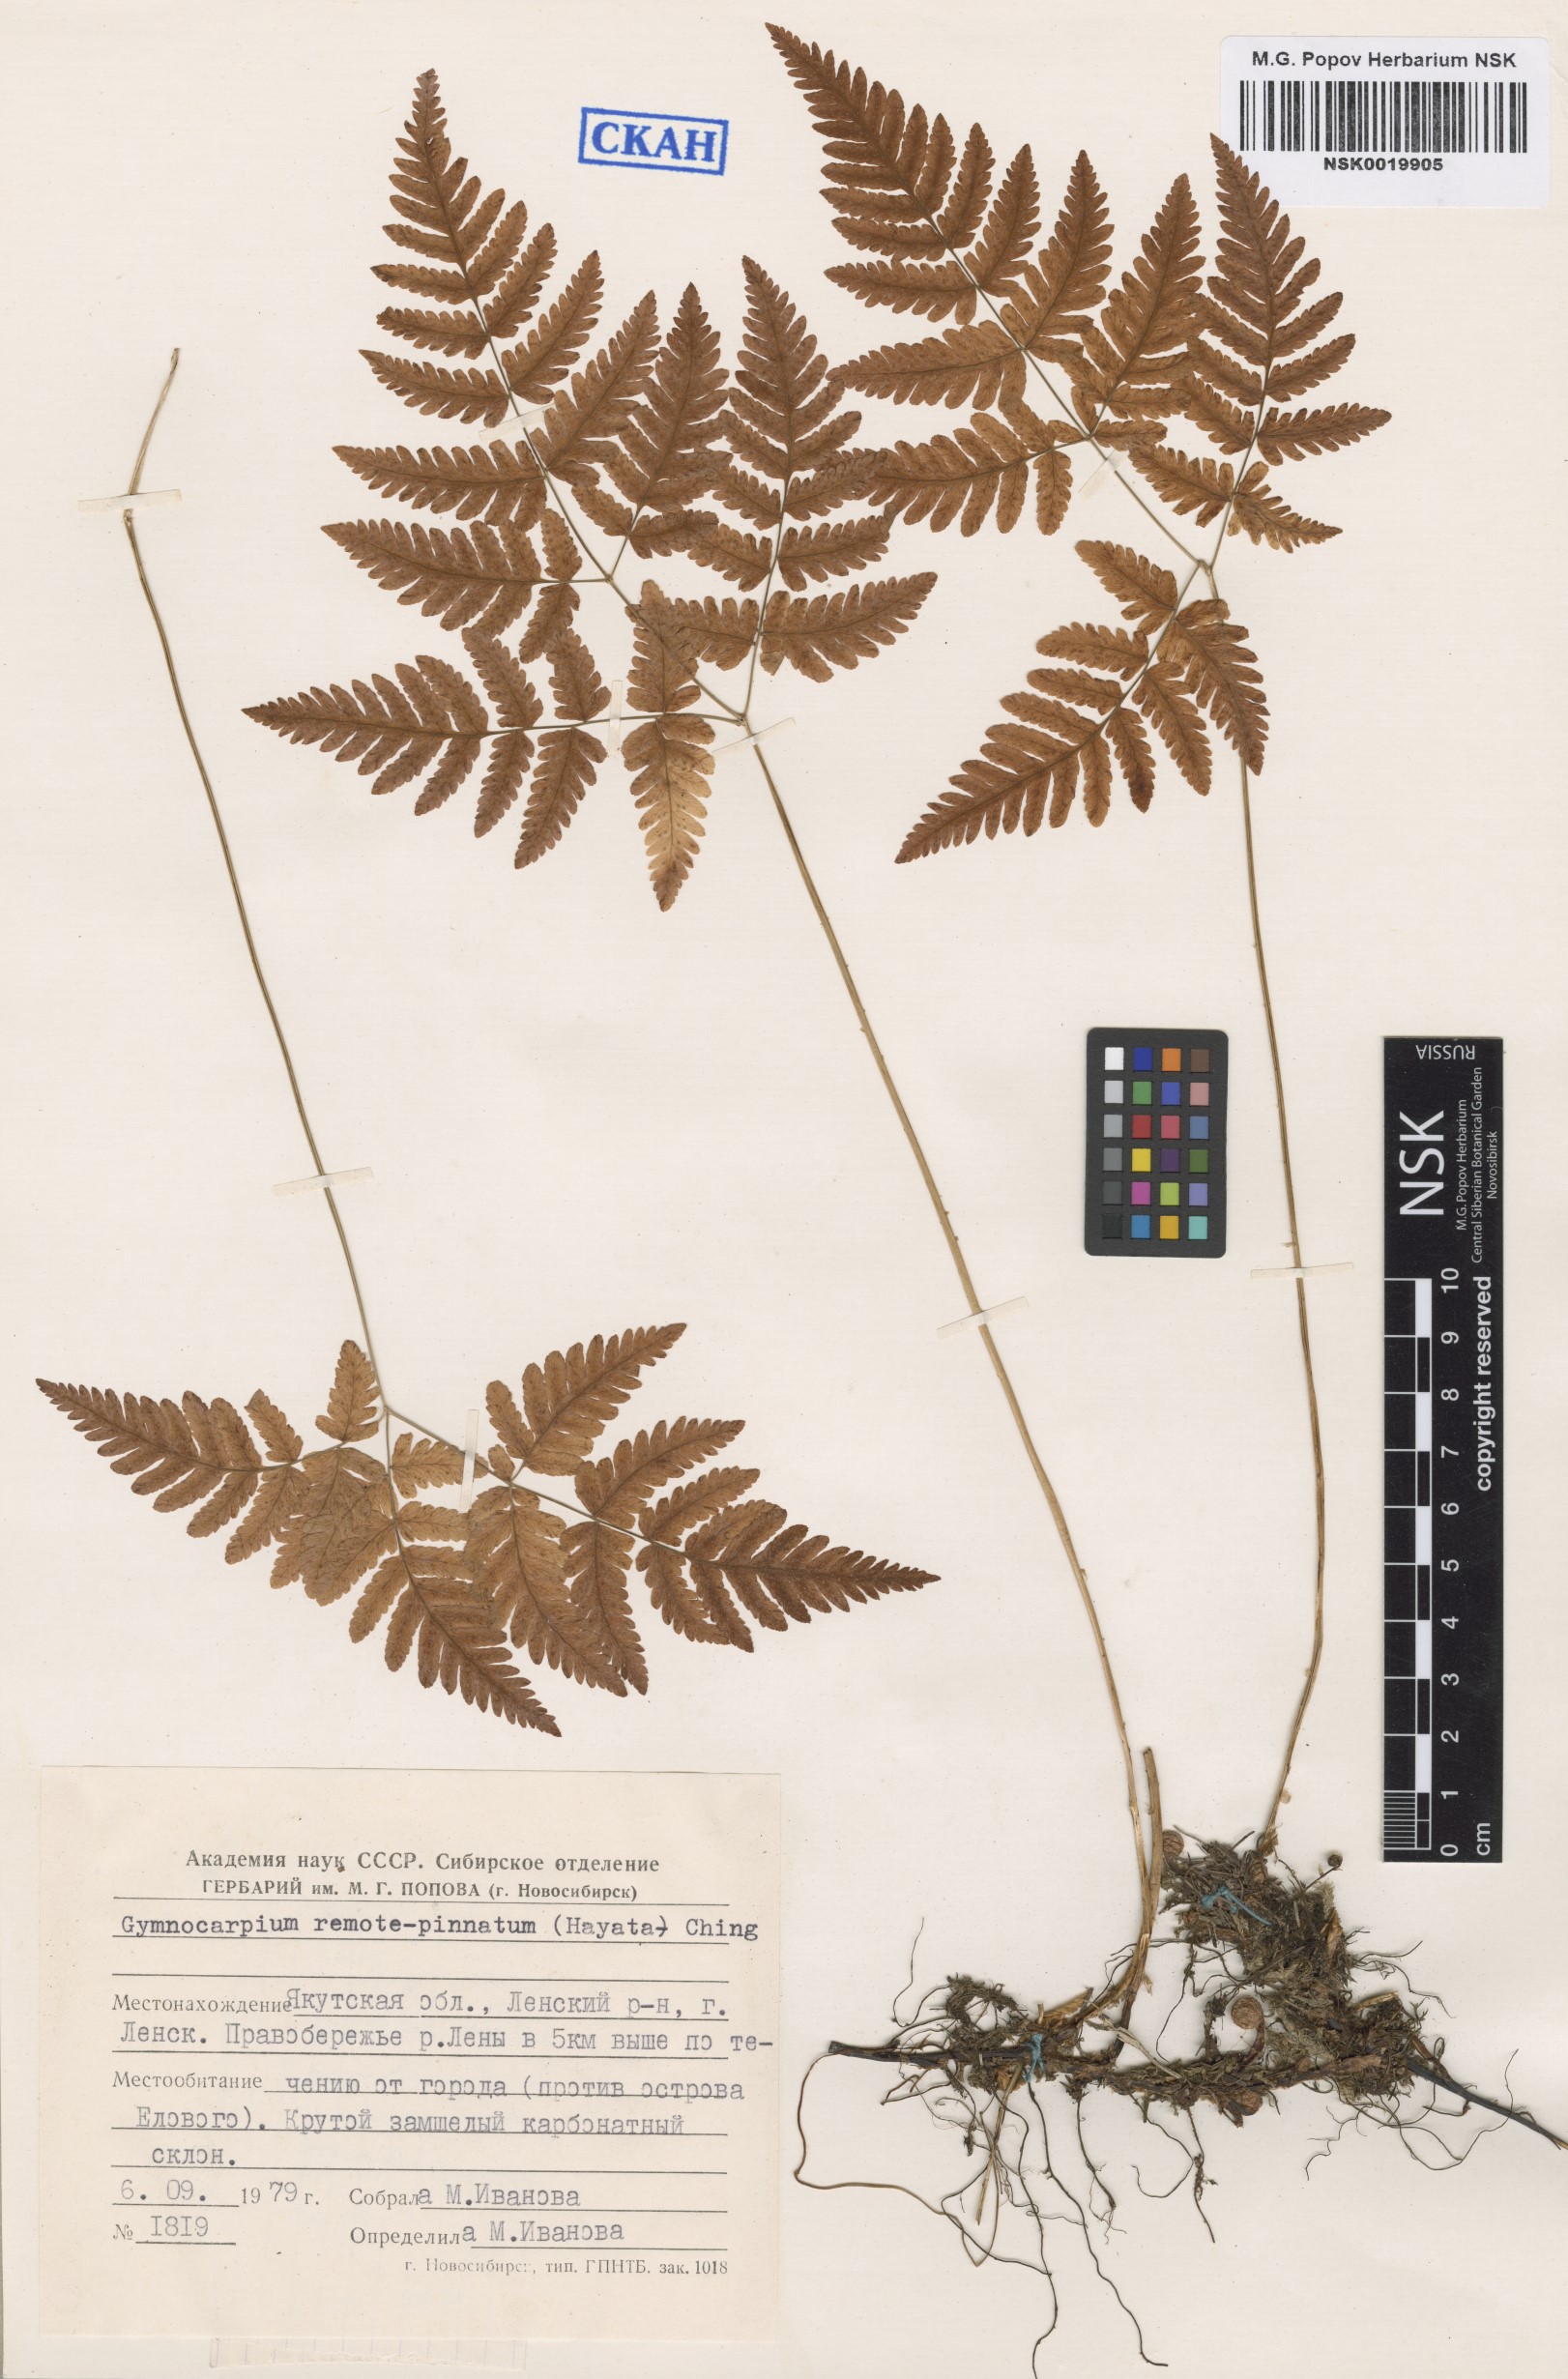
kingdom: Plantae
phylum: Tracheophyta
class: Polypodiopsida
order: Polypodiales
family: Cystopteridaceae
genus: Gymnocarpium
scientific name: Gymnocarpium remotepinnatum
